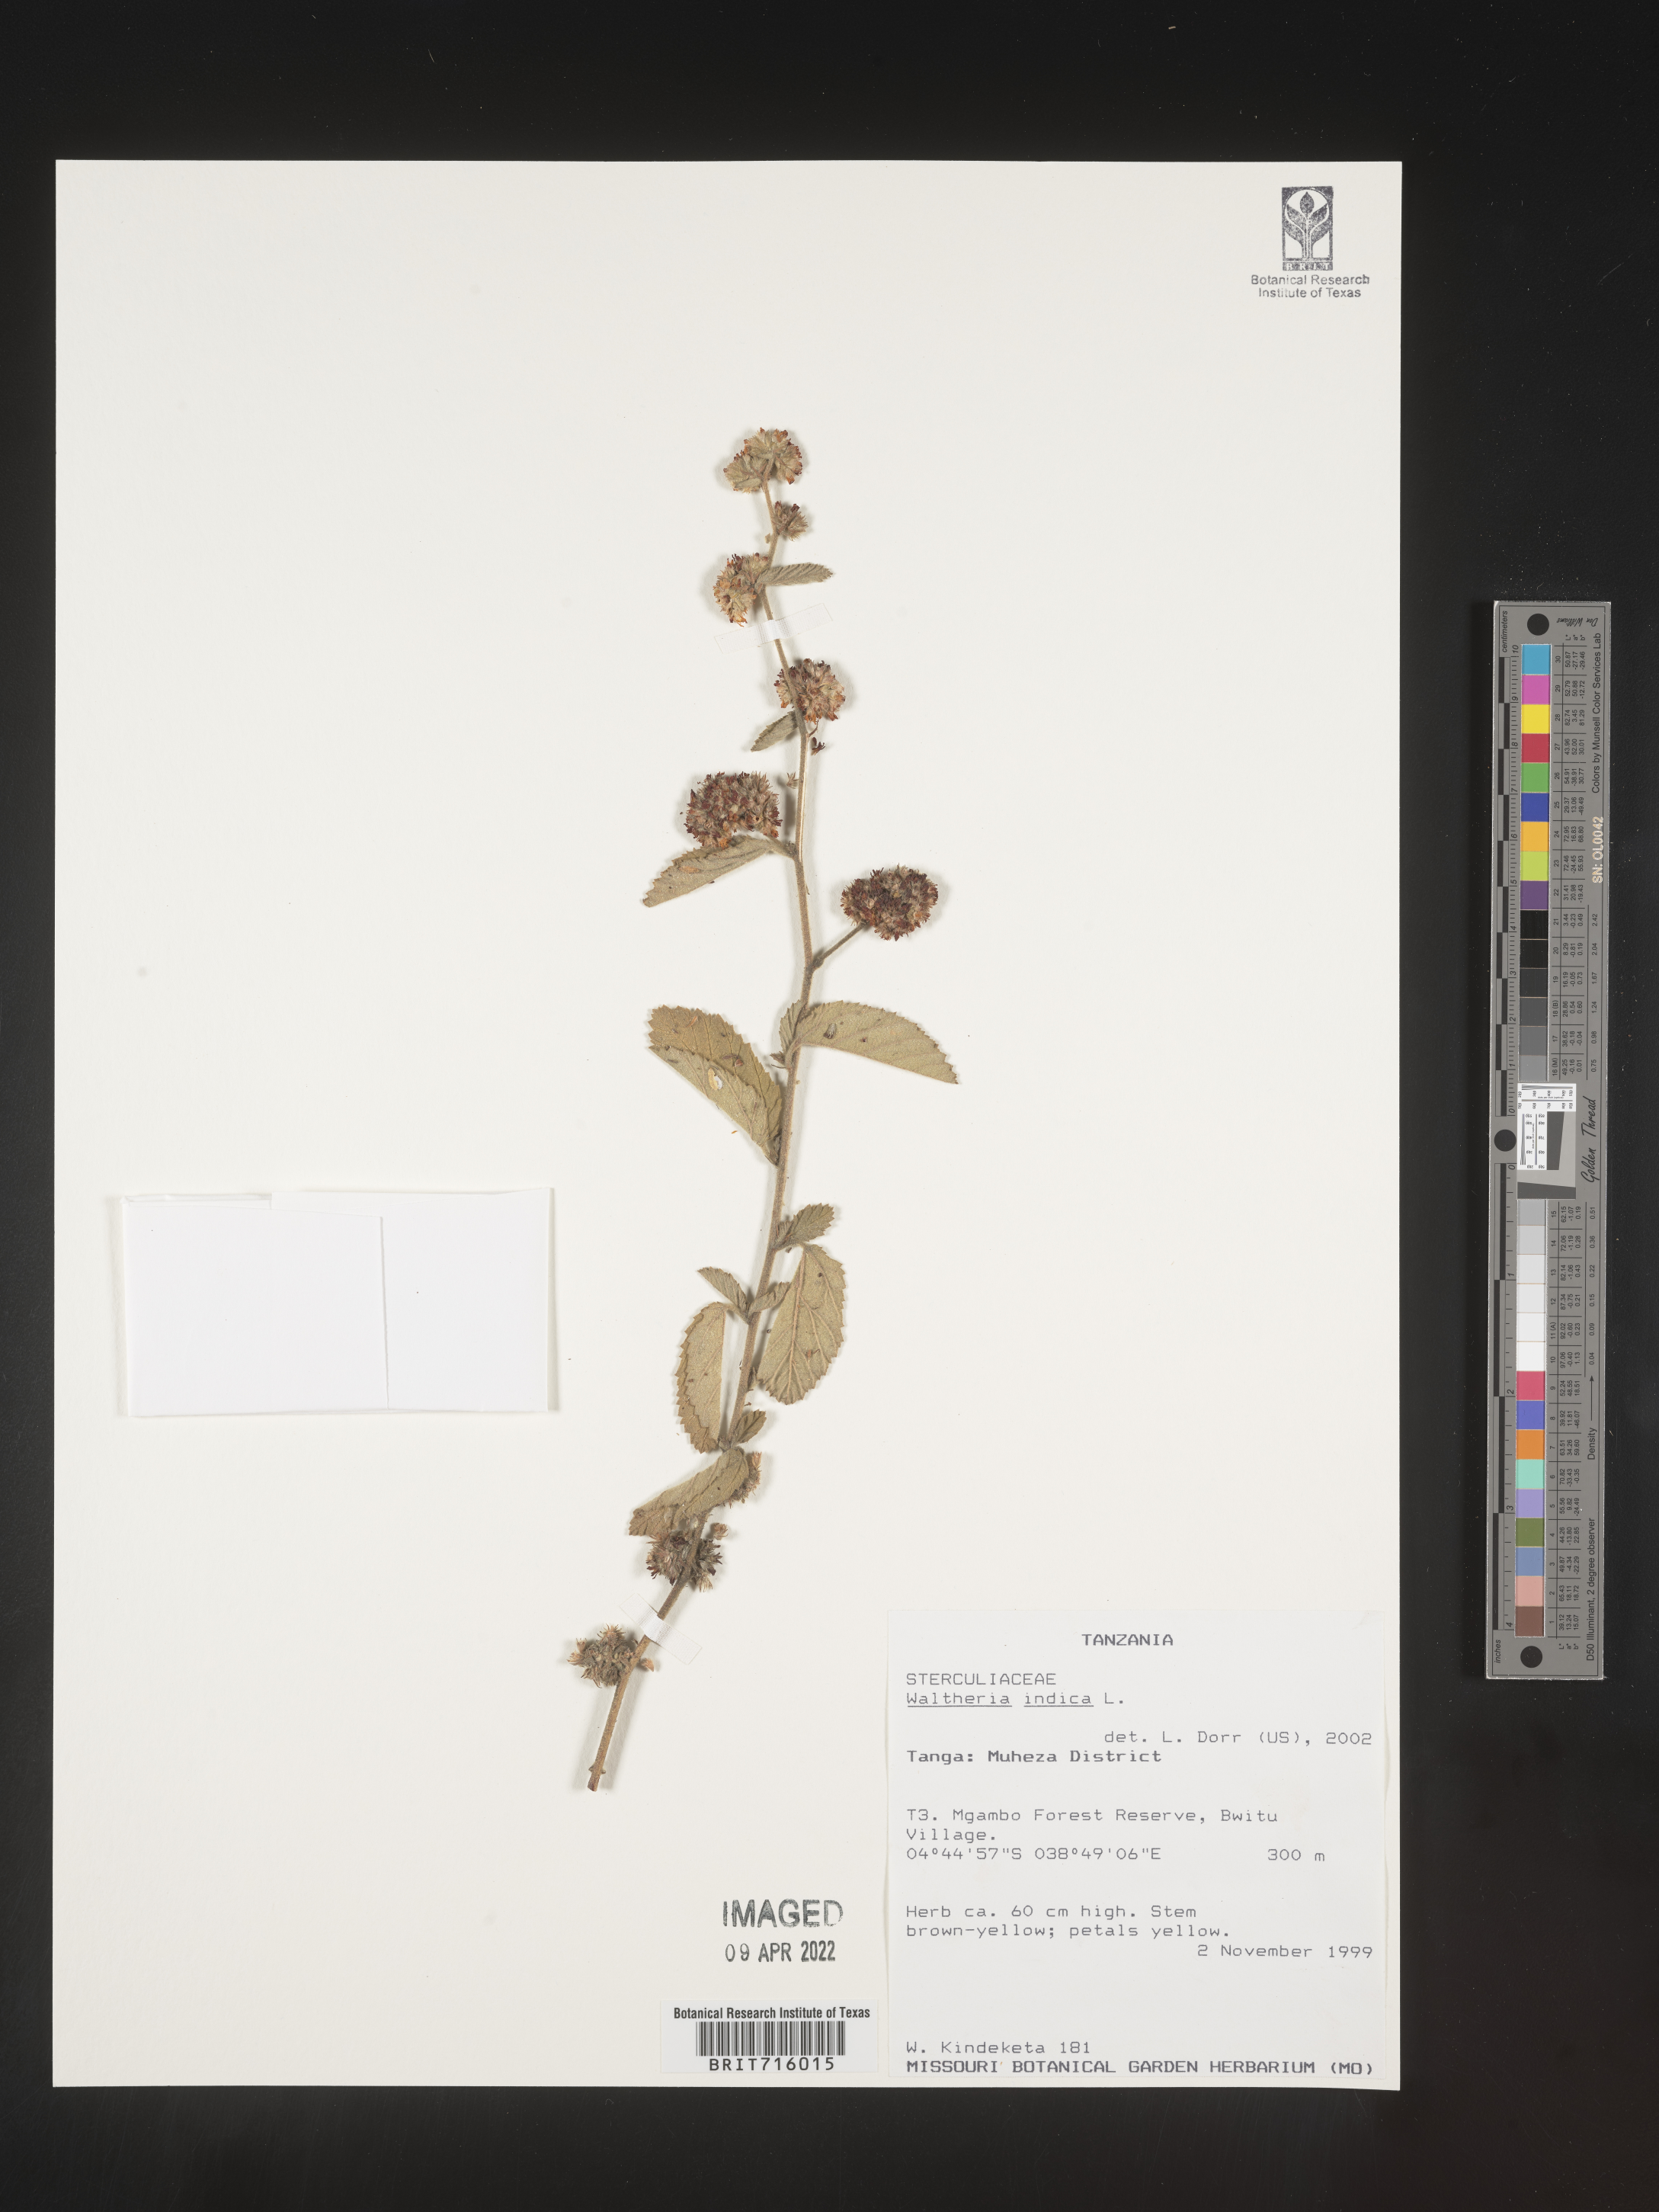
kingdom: Plantae
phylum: Tracheophyta
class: Magnoliopsida
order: Malvales
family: Malvaceae
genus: Waltheria
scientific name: Waltheria
